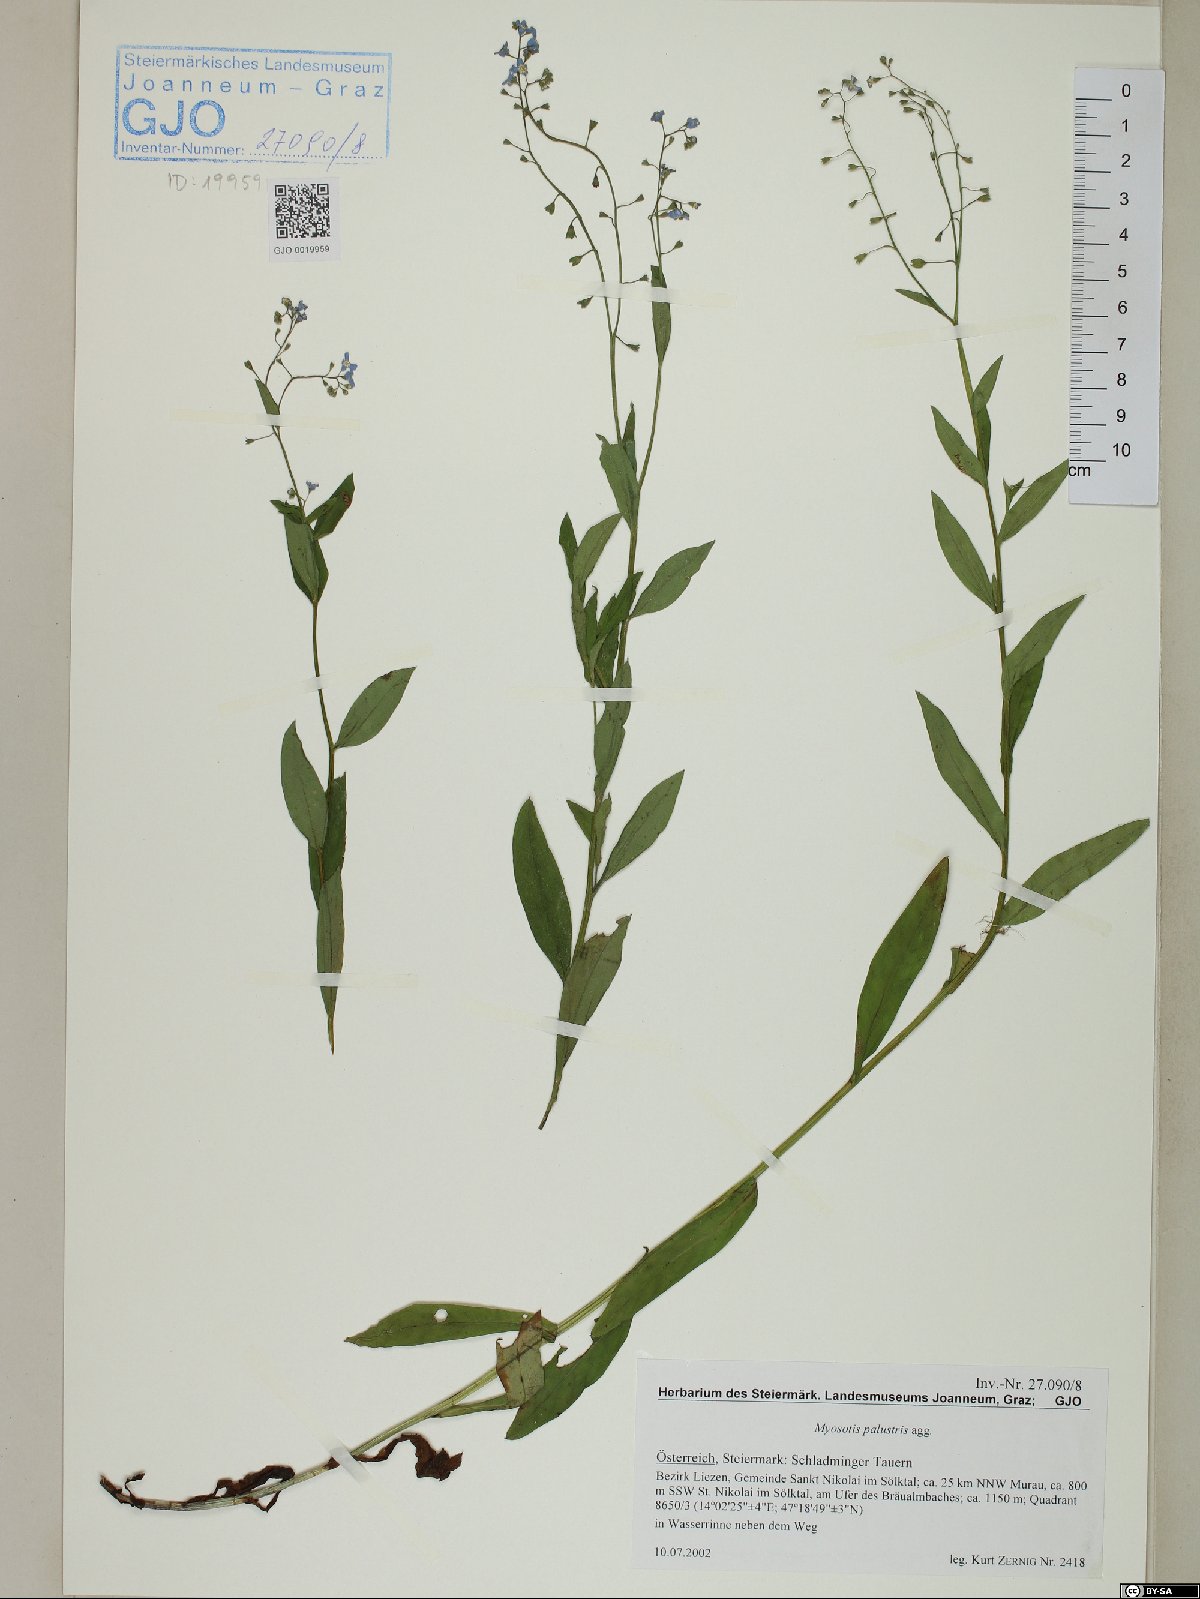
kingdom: Plantae
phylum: Tracheophyta
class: Magnoliopsida
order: Boraginales
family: Boraginaceae
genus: Myosotis
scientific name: Myosotis scorpioides
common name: Water forget-me-not
